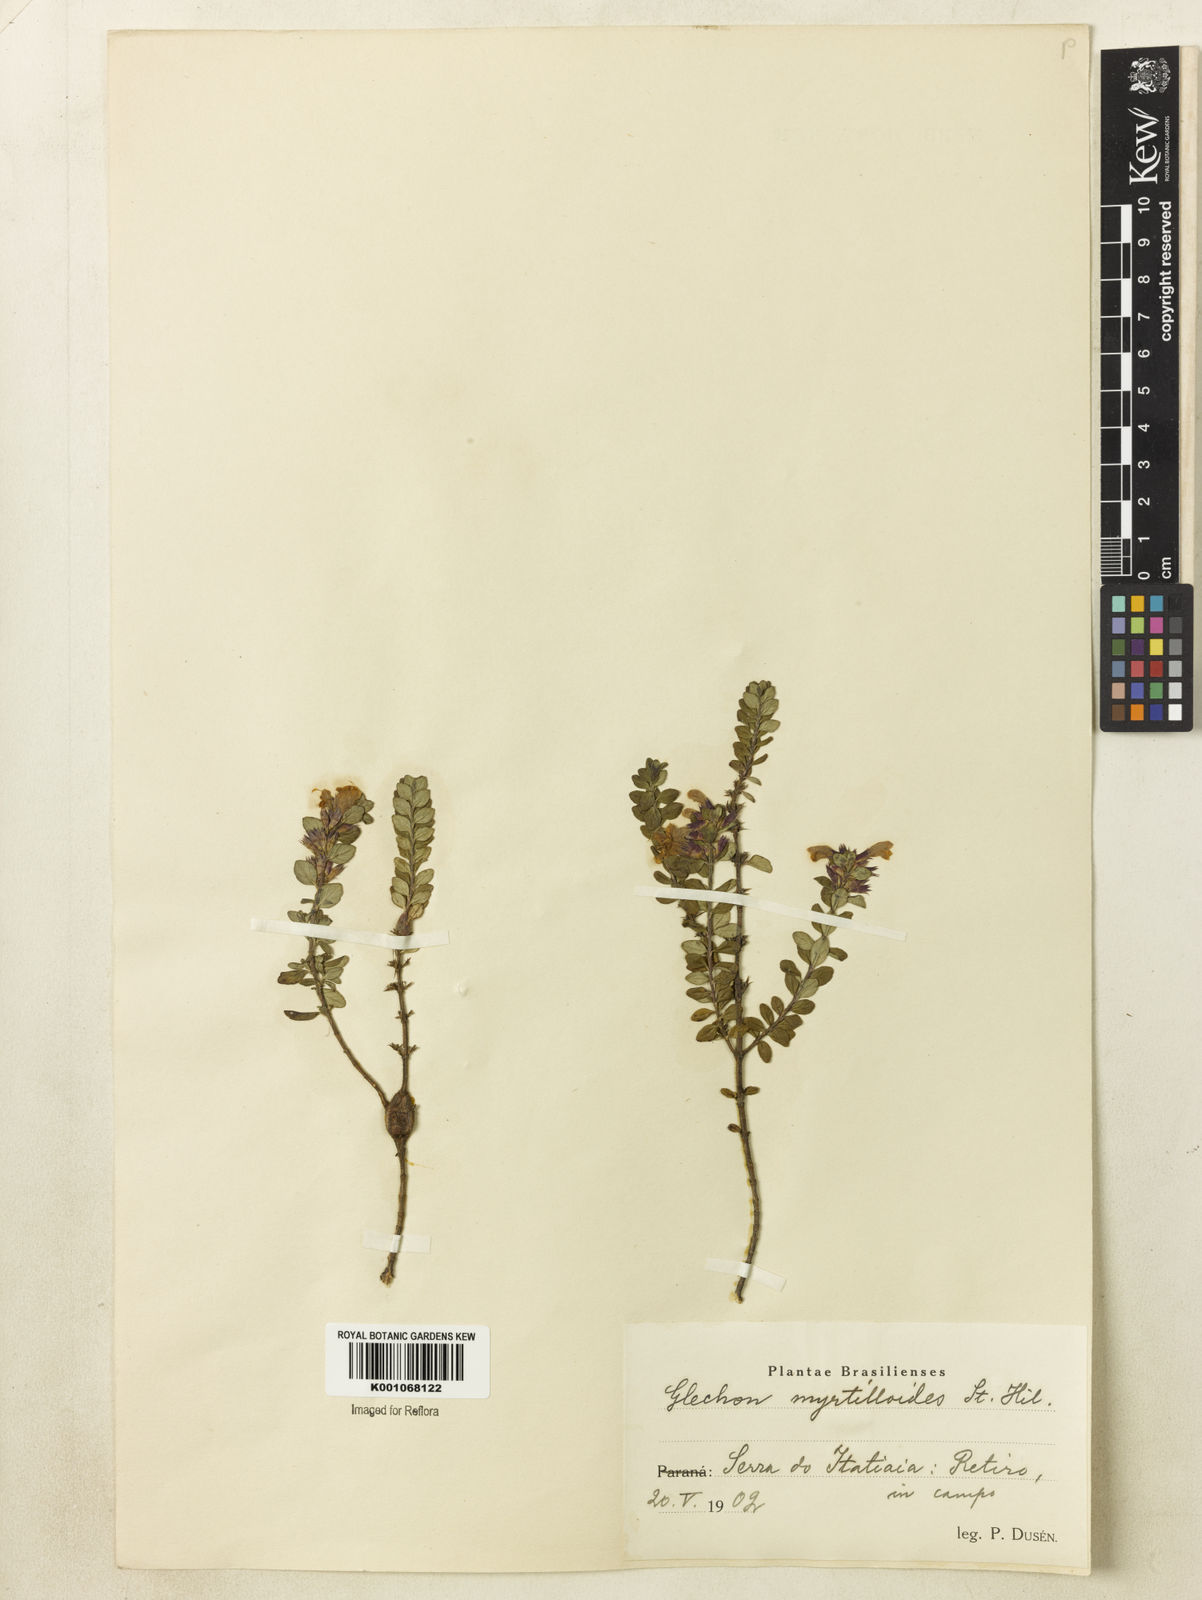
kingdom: Plantae
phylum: Tracheophyta
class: Magnoliopsida
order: Lamiales
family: Lamiaceae
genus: Hesperozygis
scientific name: Hesperozygis myrtoides
